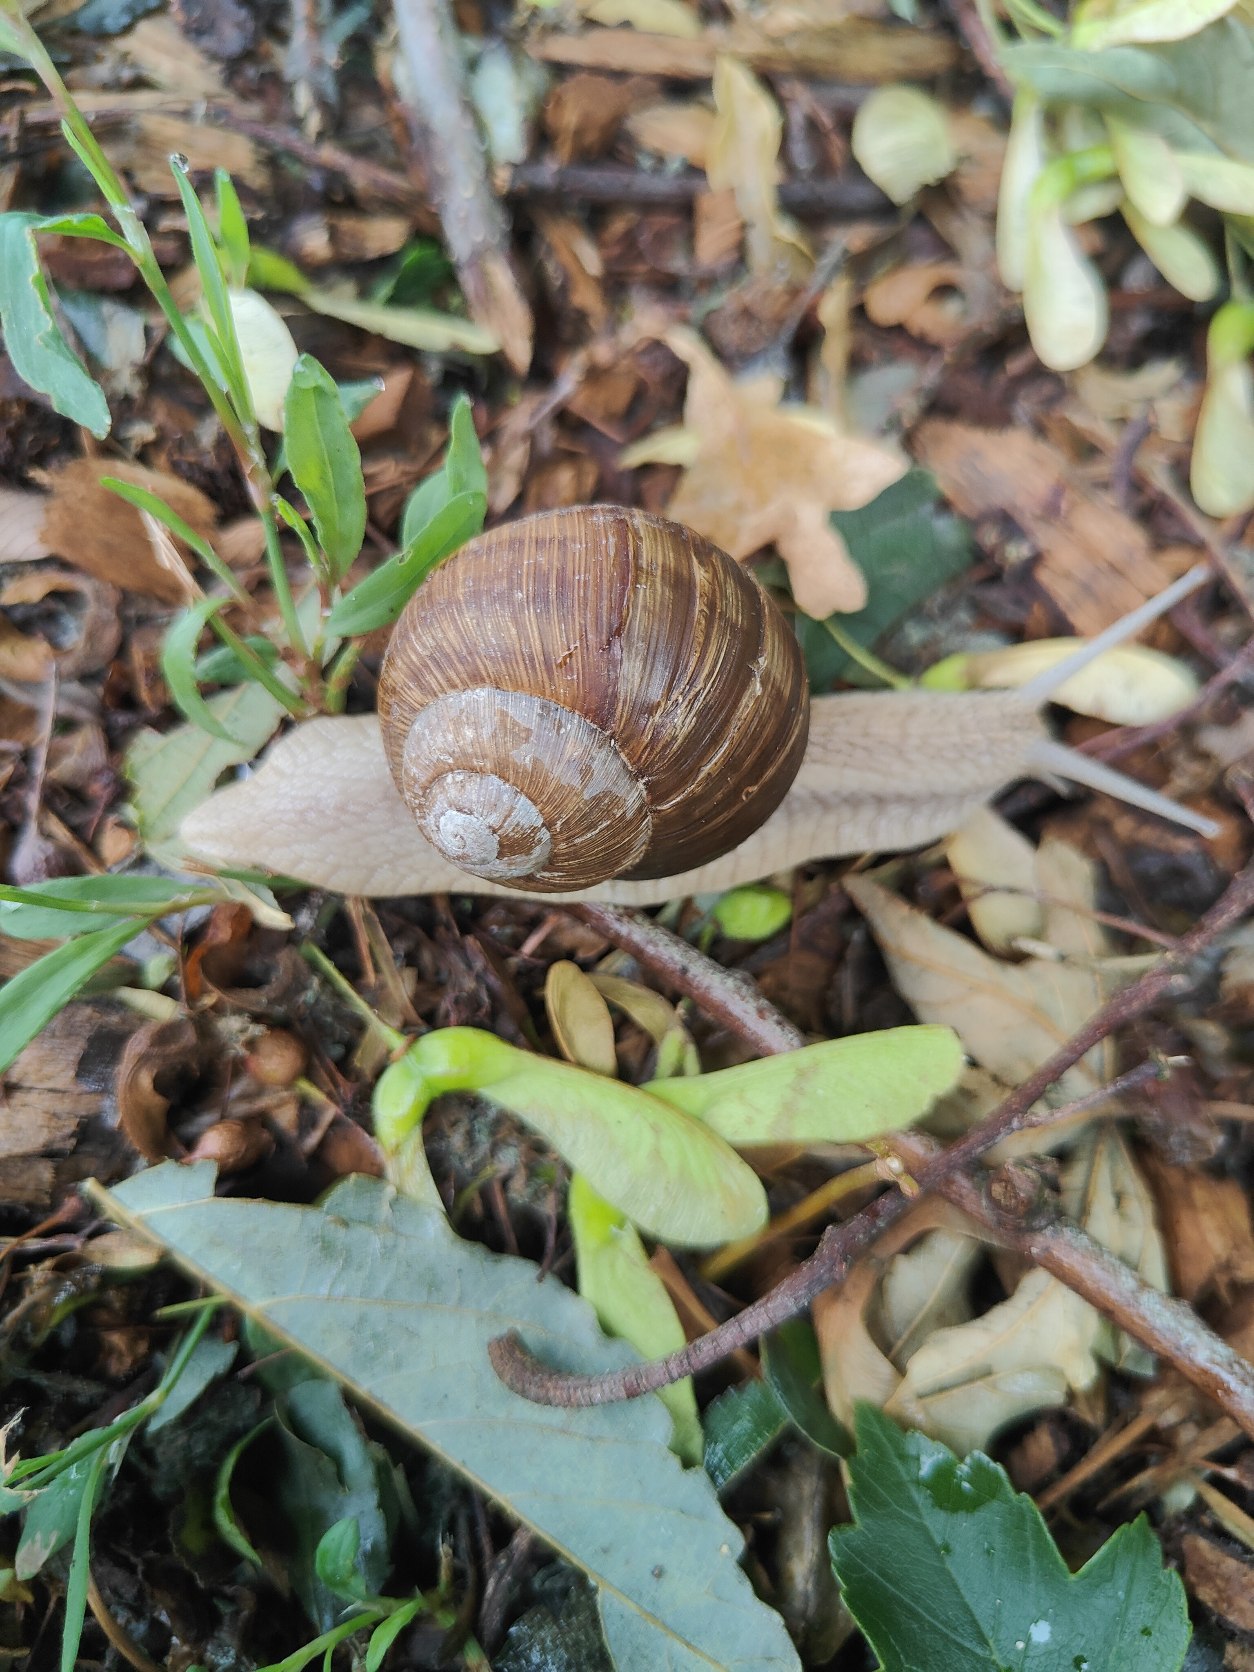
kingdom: Animalia
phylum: Mollusca
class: Gastropoda
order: Stylommatophora
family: Helicidae
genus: Helix
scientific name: Helix pomatia
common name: Vinbjergsnegl
